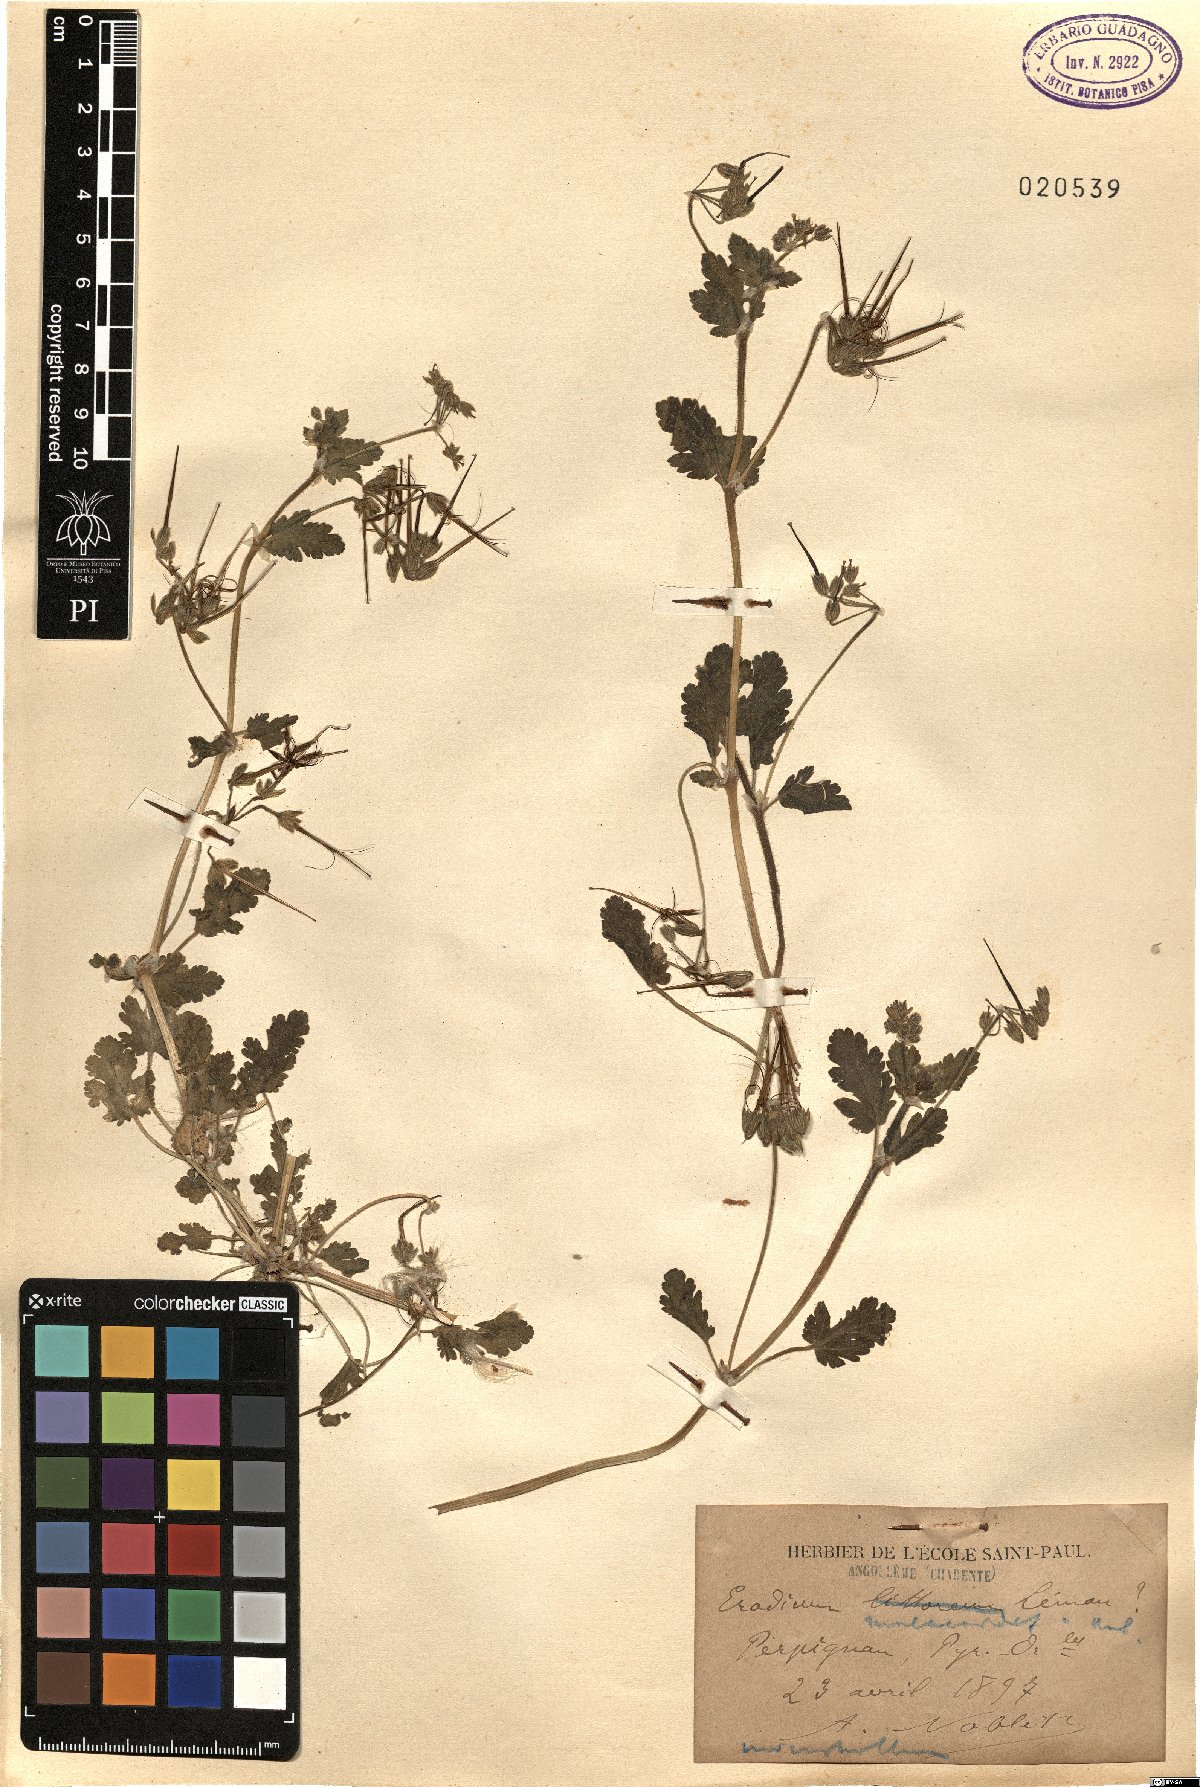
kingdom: Plantae
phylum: Tracheophyta
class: Magnoliopsida
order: Geraniales
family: Geraniaceae
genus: Erodium
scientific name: Erodium malacoides
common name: Soft stork's-bill
